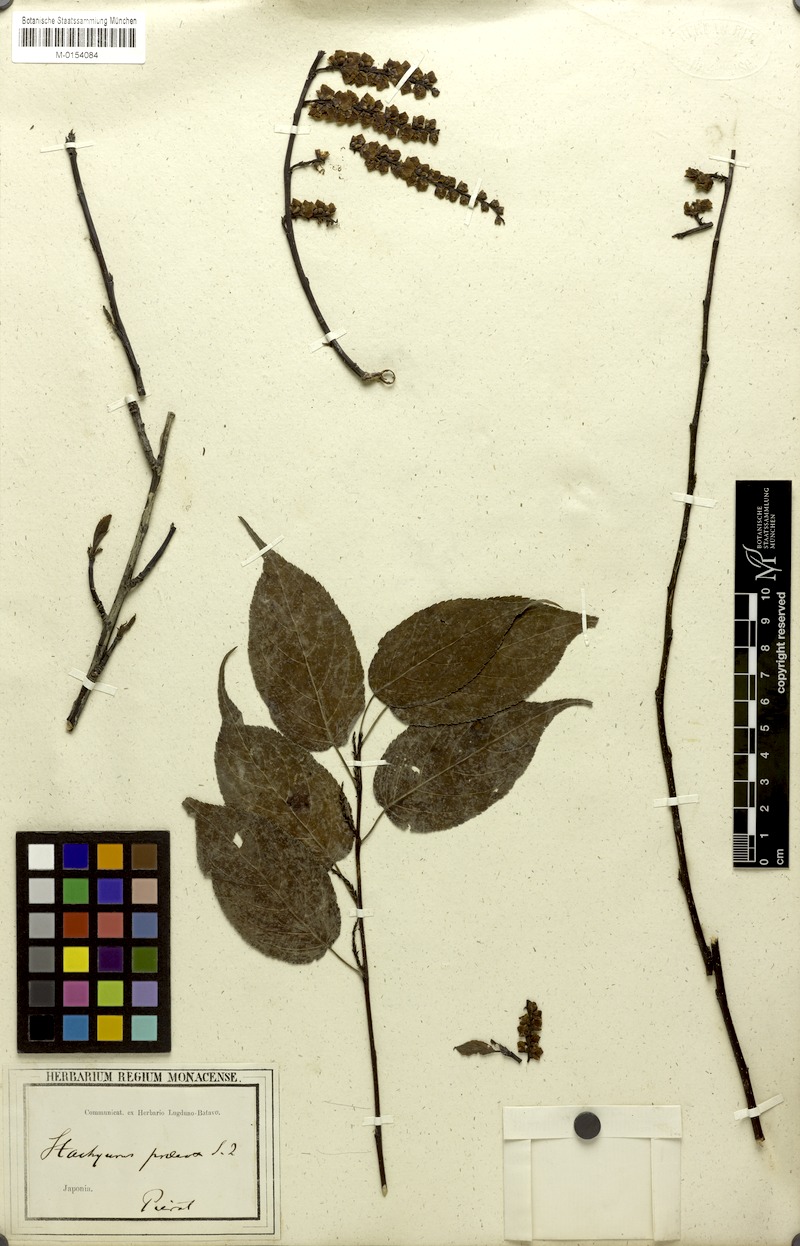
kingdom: Plantae
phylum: Tracheophyta
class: Magnoliopsida
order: Crossosomatales
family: Stachyuraceae
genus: Stachyurus
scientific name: Stachyurus praecox
